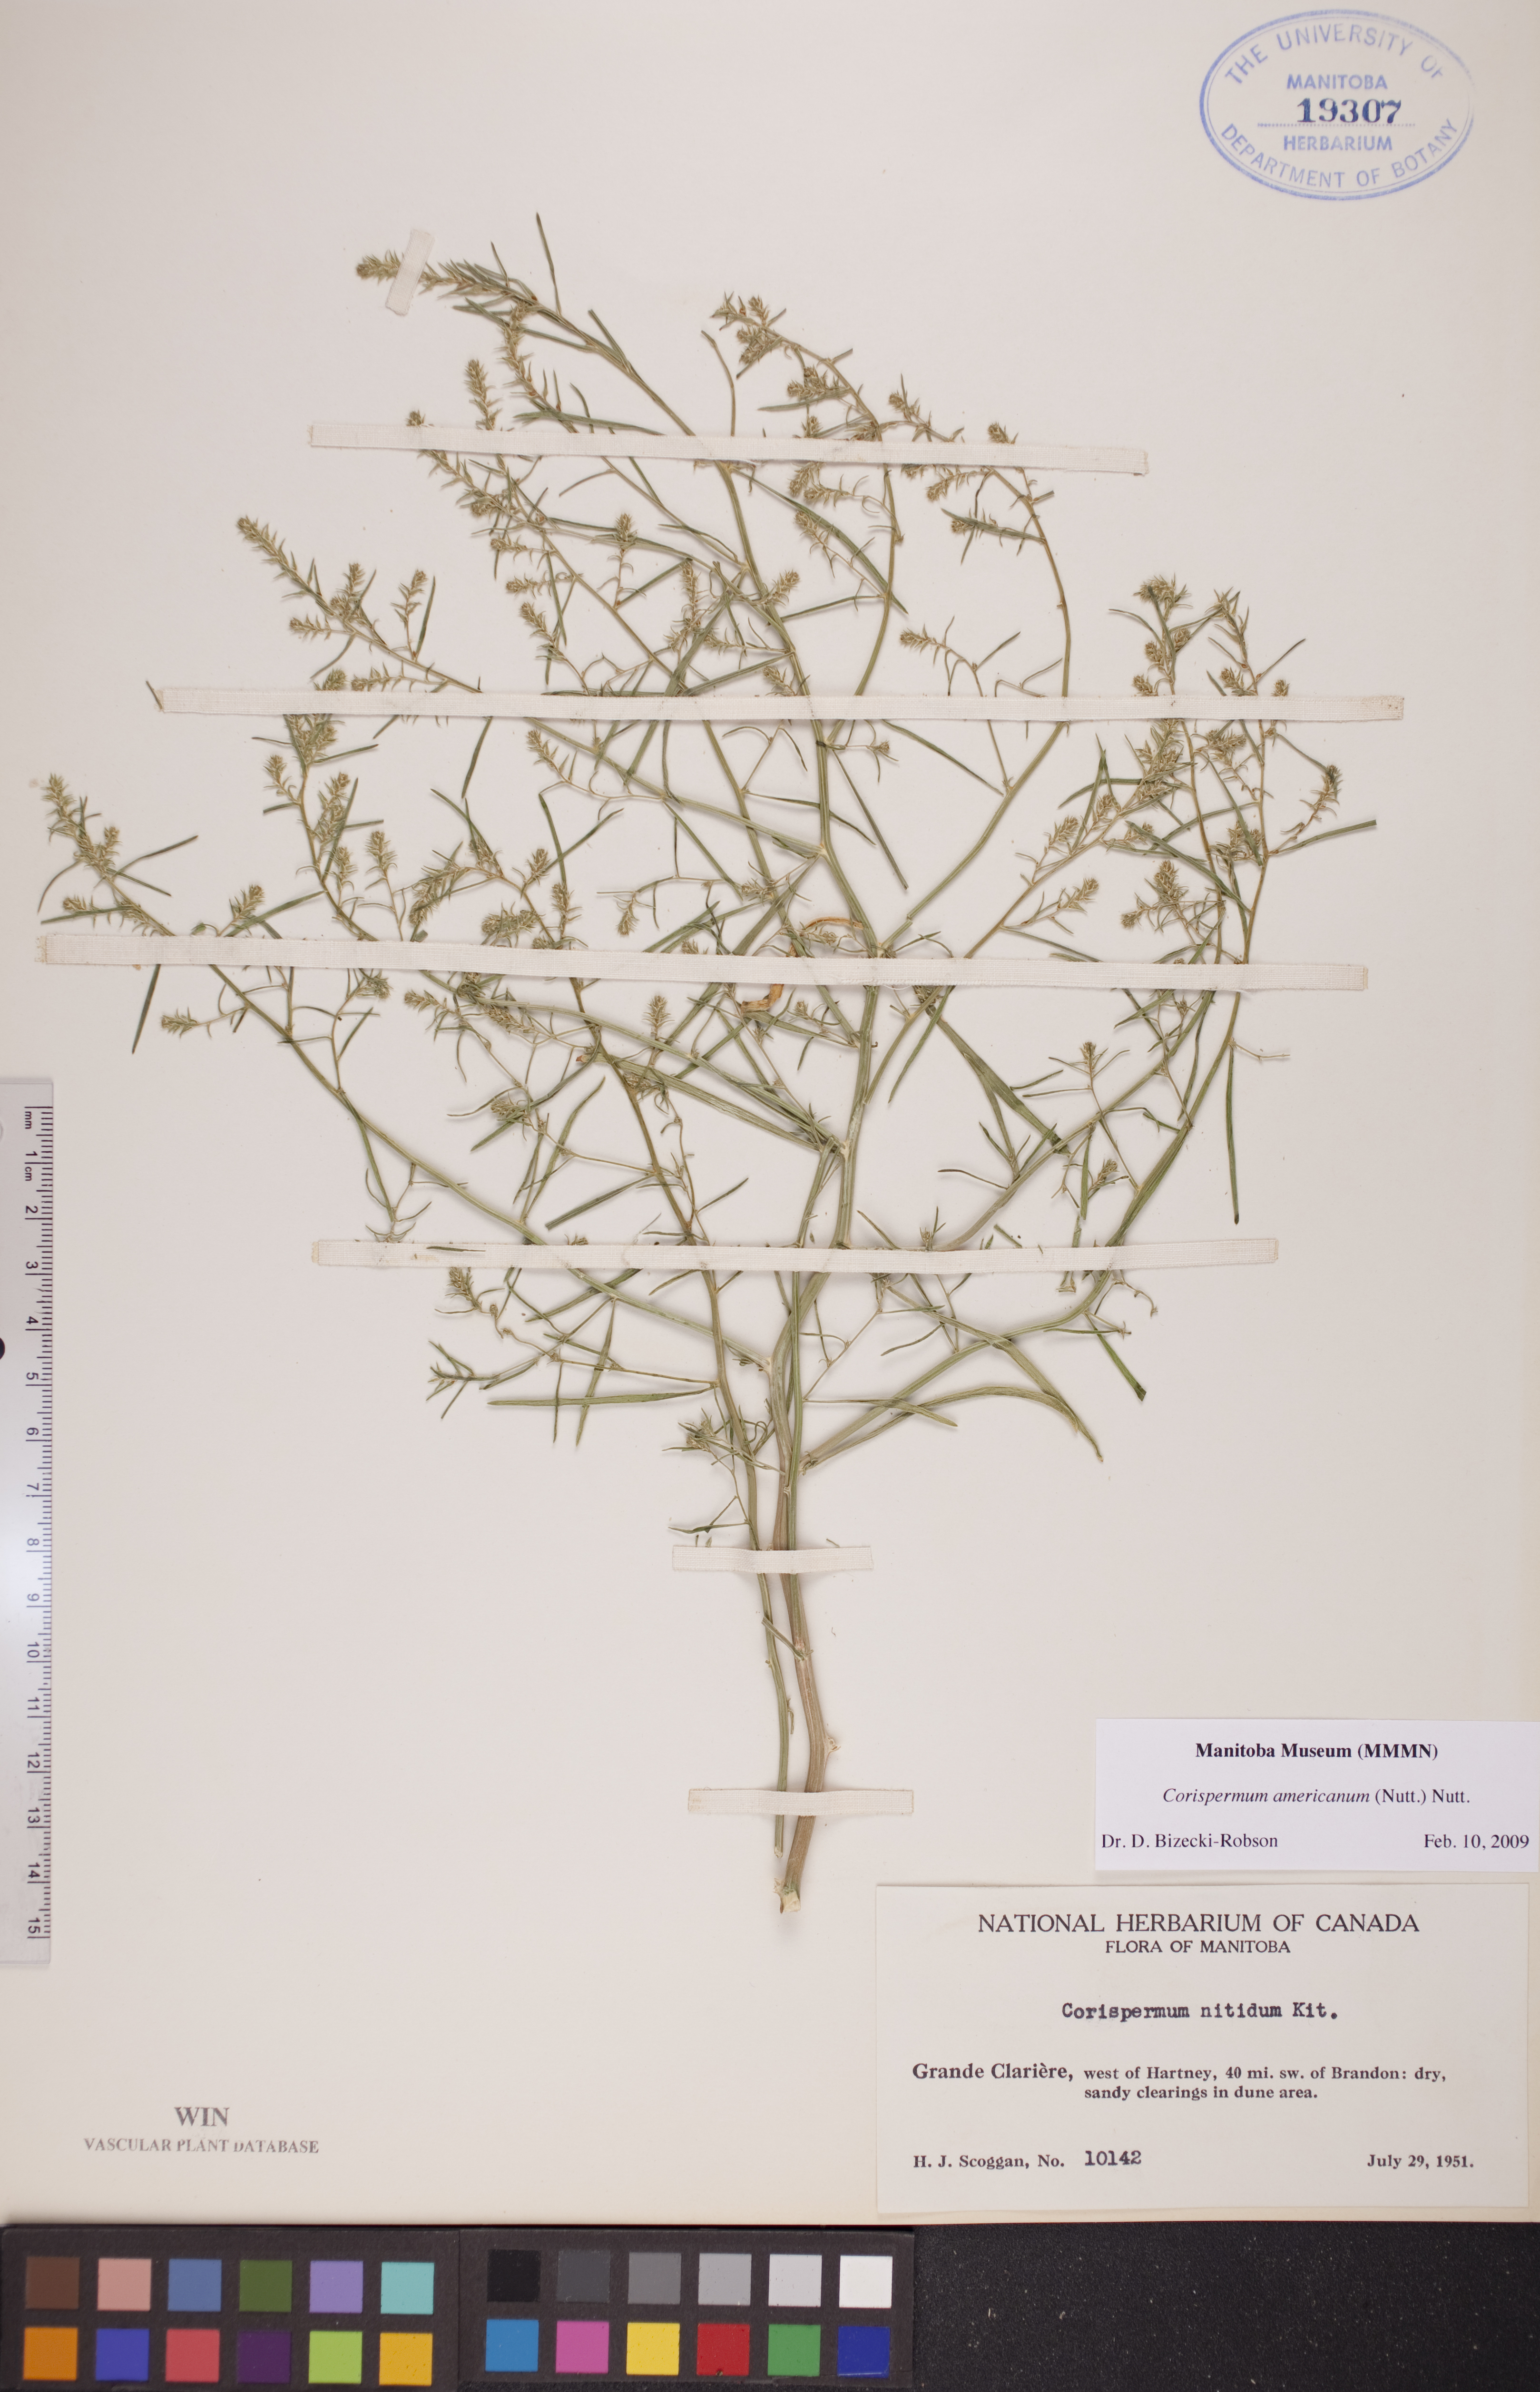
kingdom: Plantae
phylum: Tracheophyta
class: Magnoliopsida
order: Caryophyllales
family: Amaranthaceae
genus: Corispermum
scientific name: Corispermum americanum
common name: American bugseed
